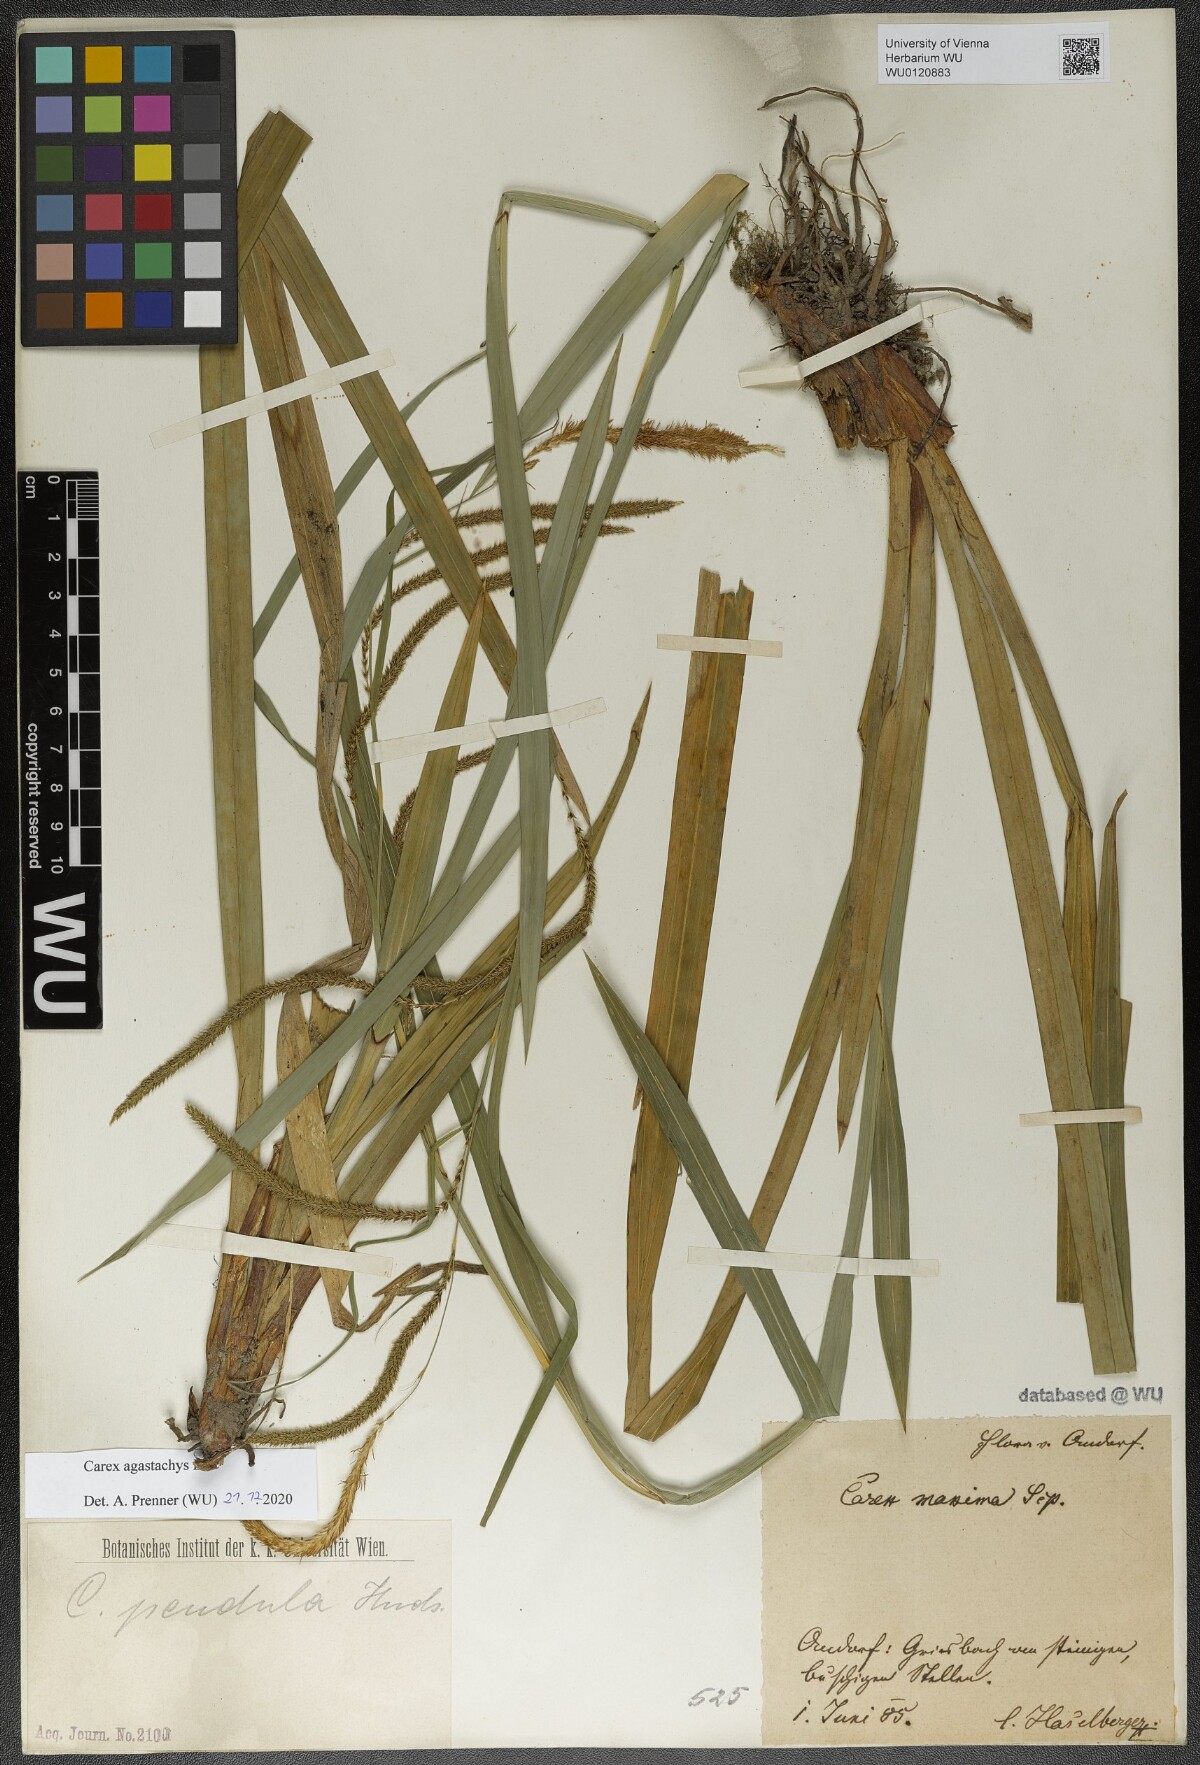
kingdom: Plantae
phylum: Tracheophyta
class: Liliopsida
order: Poales
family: Cyperaceae
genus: Carex
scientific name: Carex agastachys
